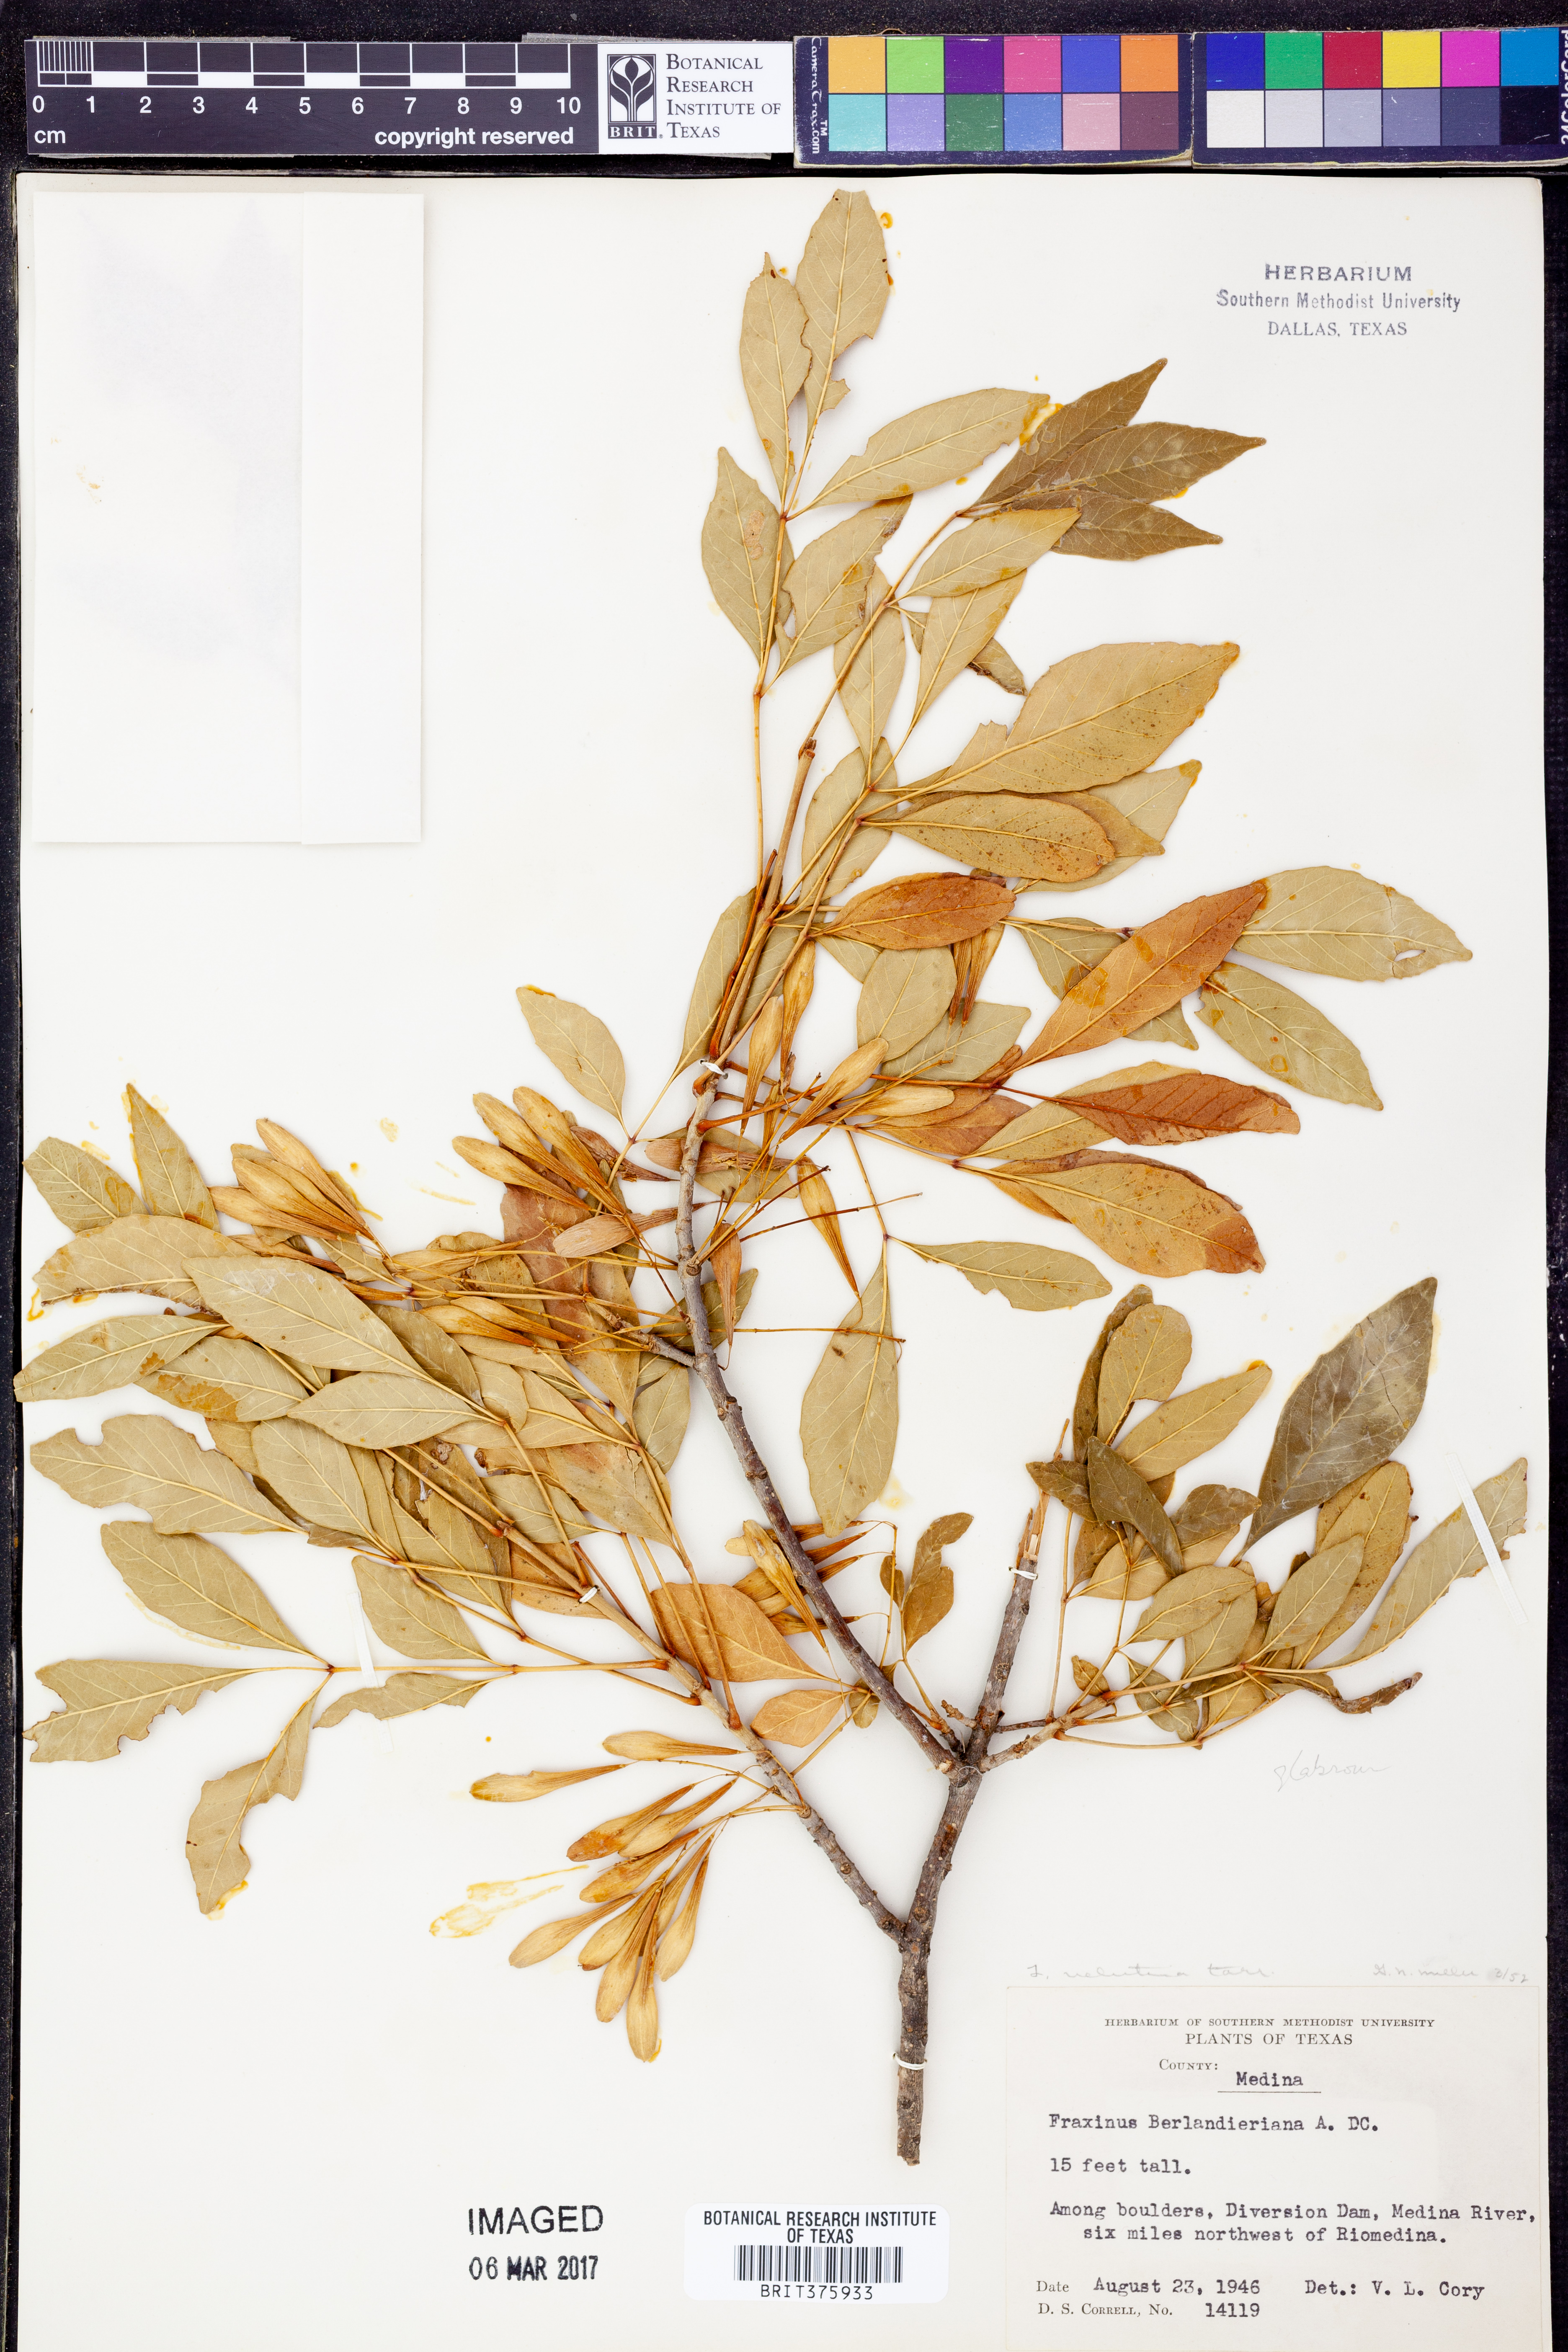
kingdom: Plantae
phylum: Tracheophyta
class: Magnoliopsida
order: Lamiales
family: Oleaceae
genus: Fraxinus
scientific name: Fraxinus velutina
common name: Arizon ash
